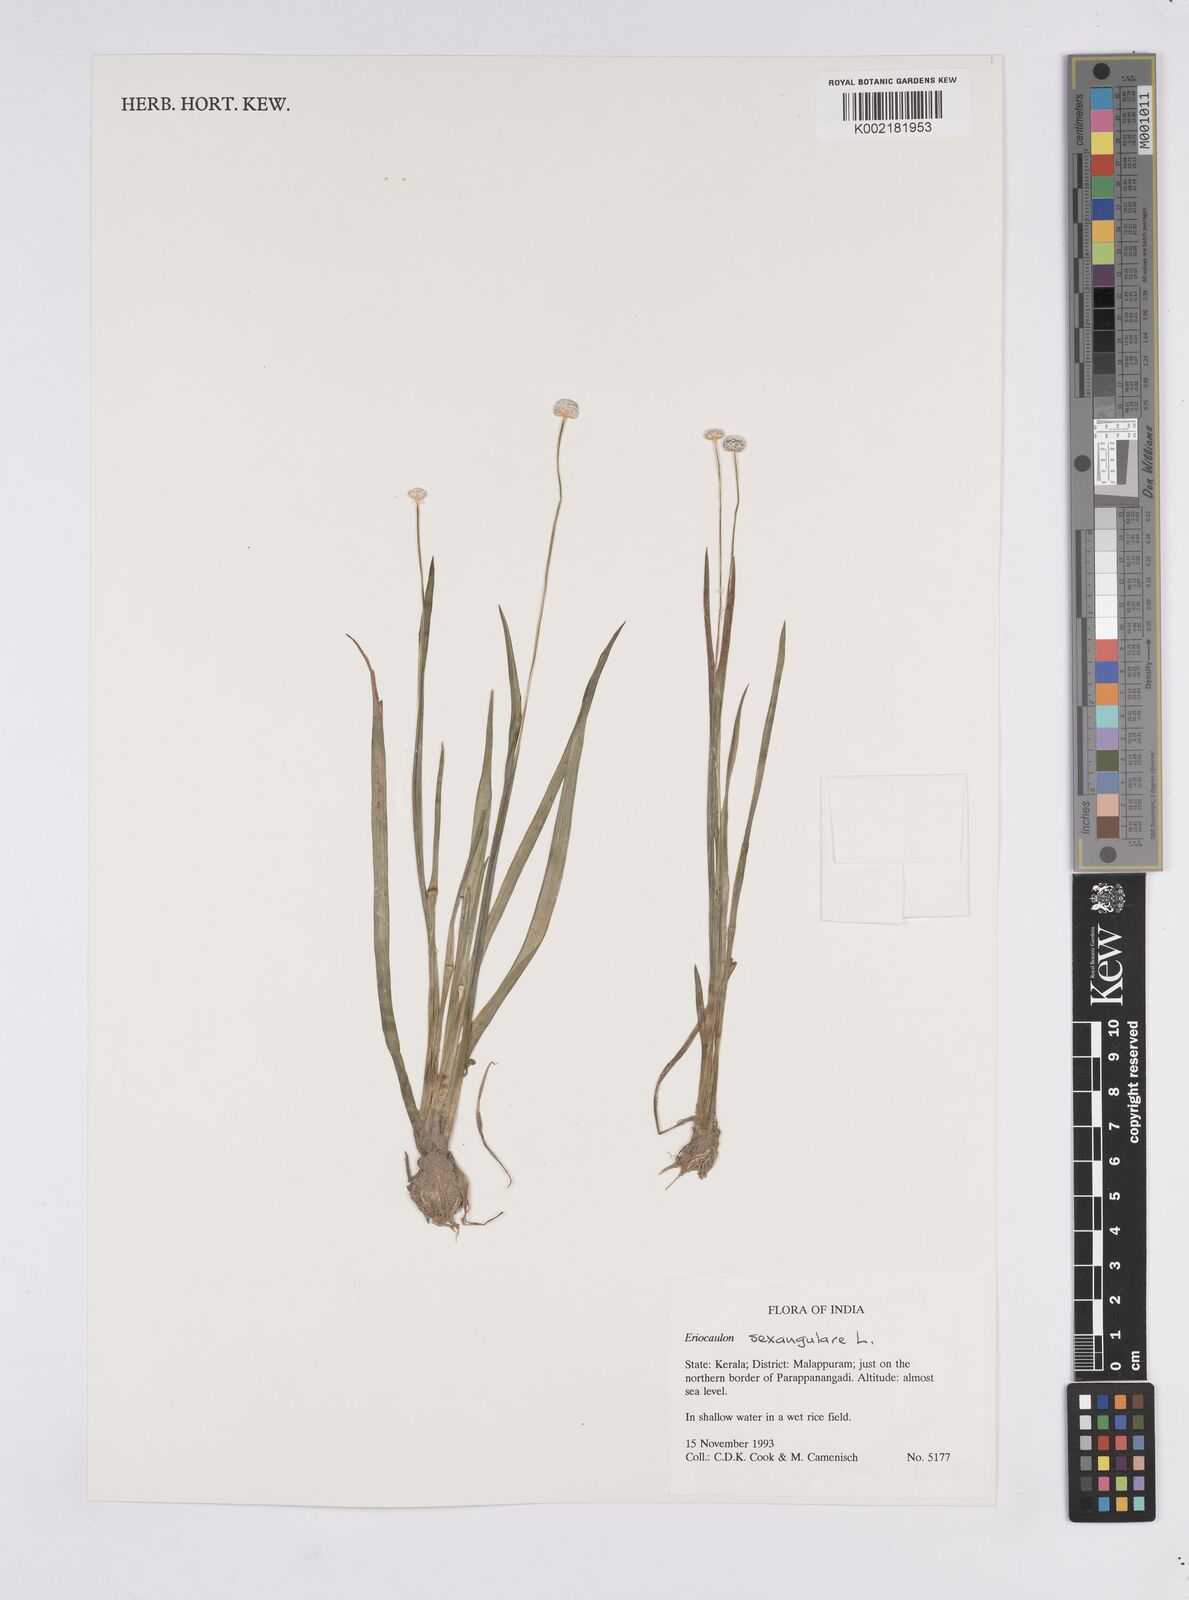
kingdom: Plantae
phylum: Tracheophyta
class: Liliopsida
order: Poales
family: Eriocaulaceae
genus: Eriocaulon
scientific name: Eriocaulon sexangulare
